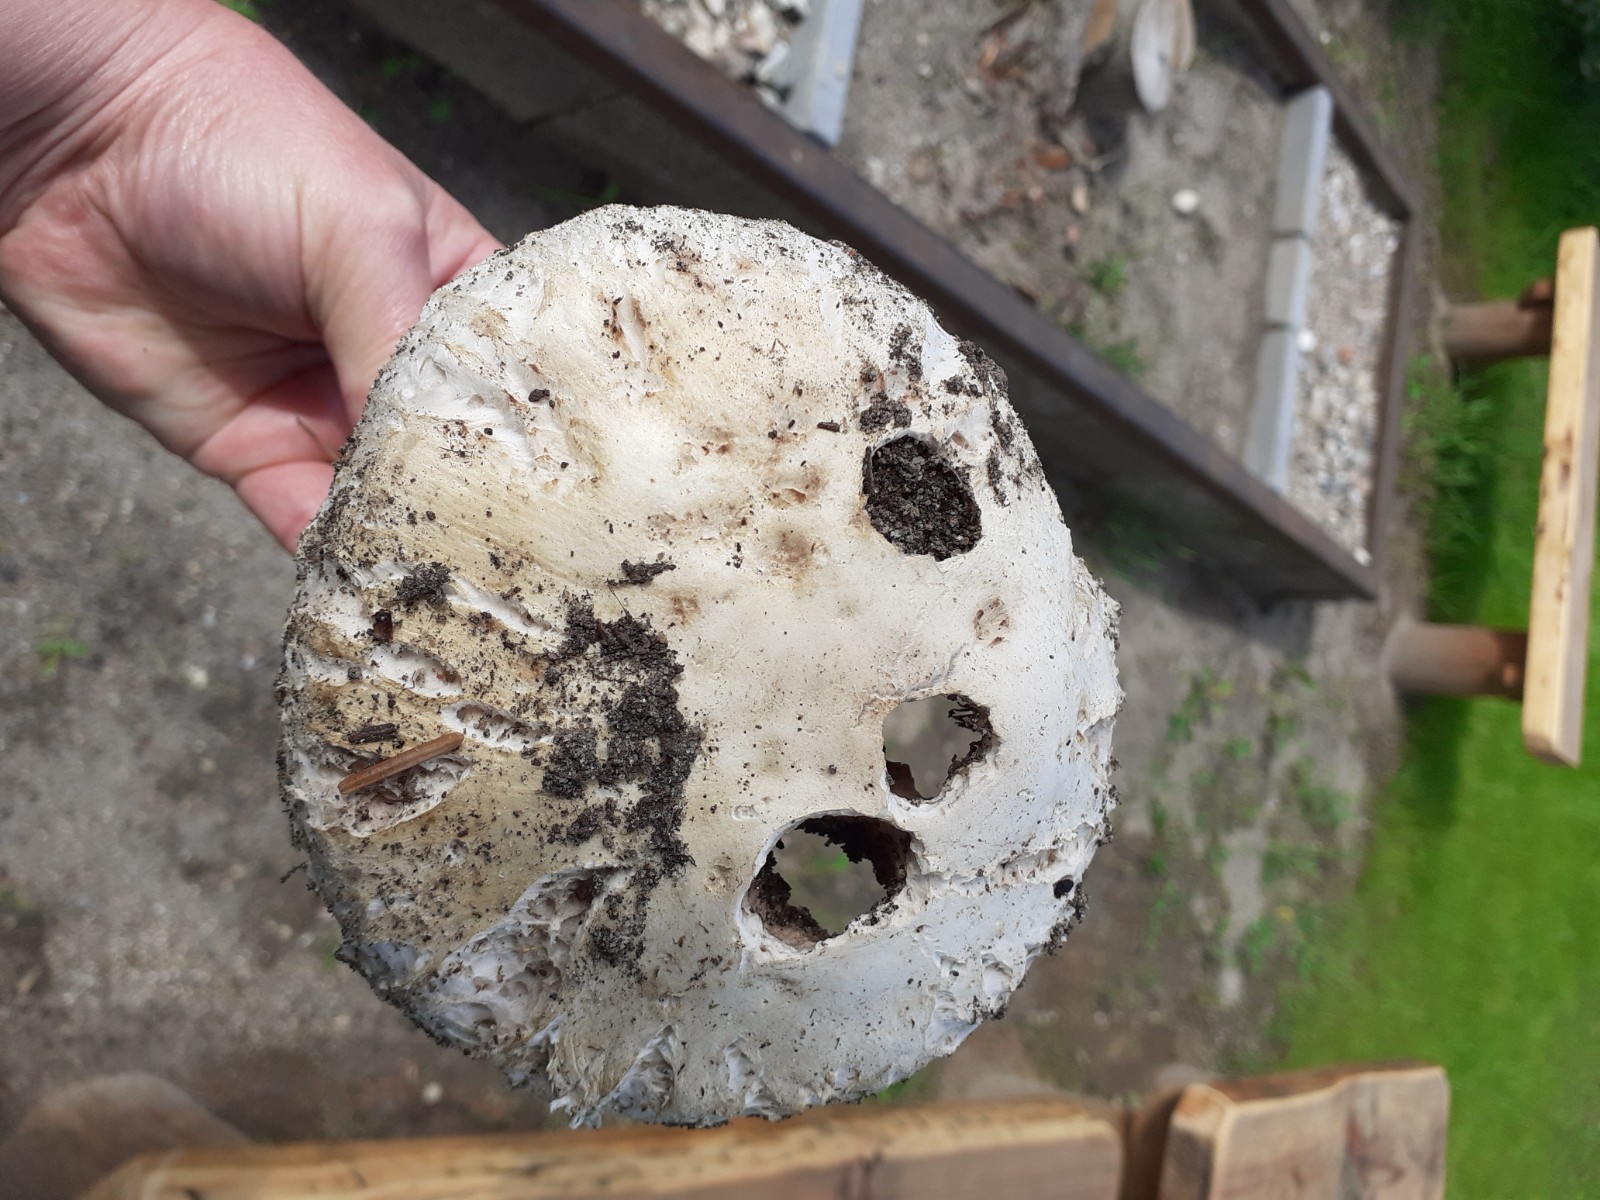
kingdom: Fungi
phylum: Basidiomycota
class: Agaricomycetes
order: Agaricales
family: Agaricaceae
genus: Agaricus
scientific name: Agaricus
